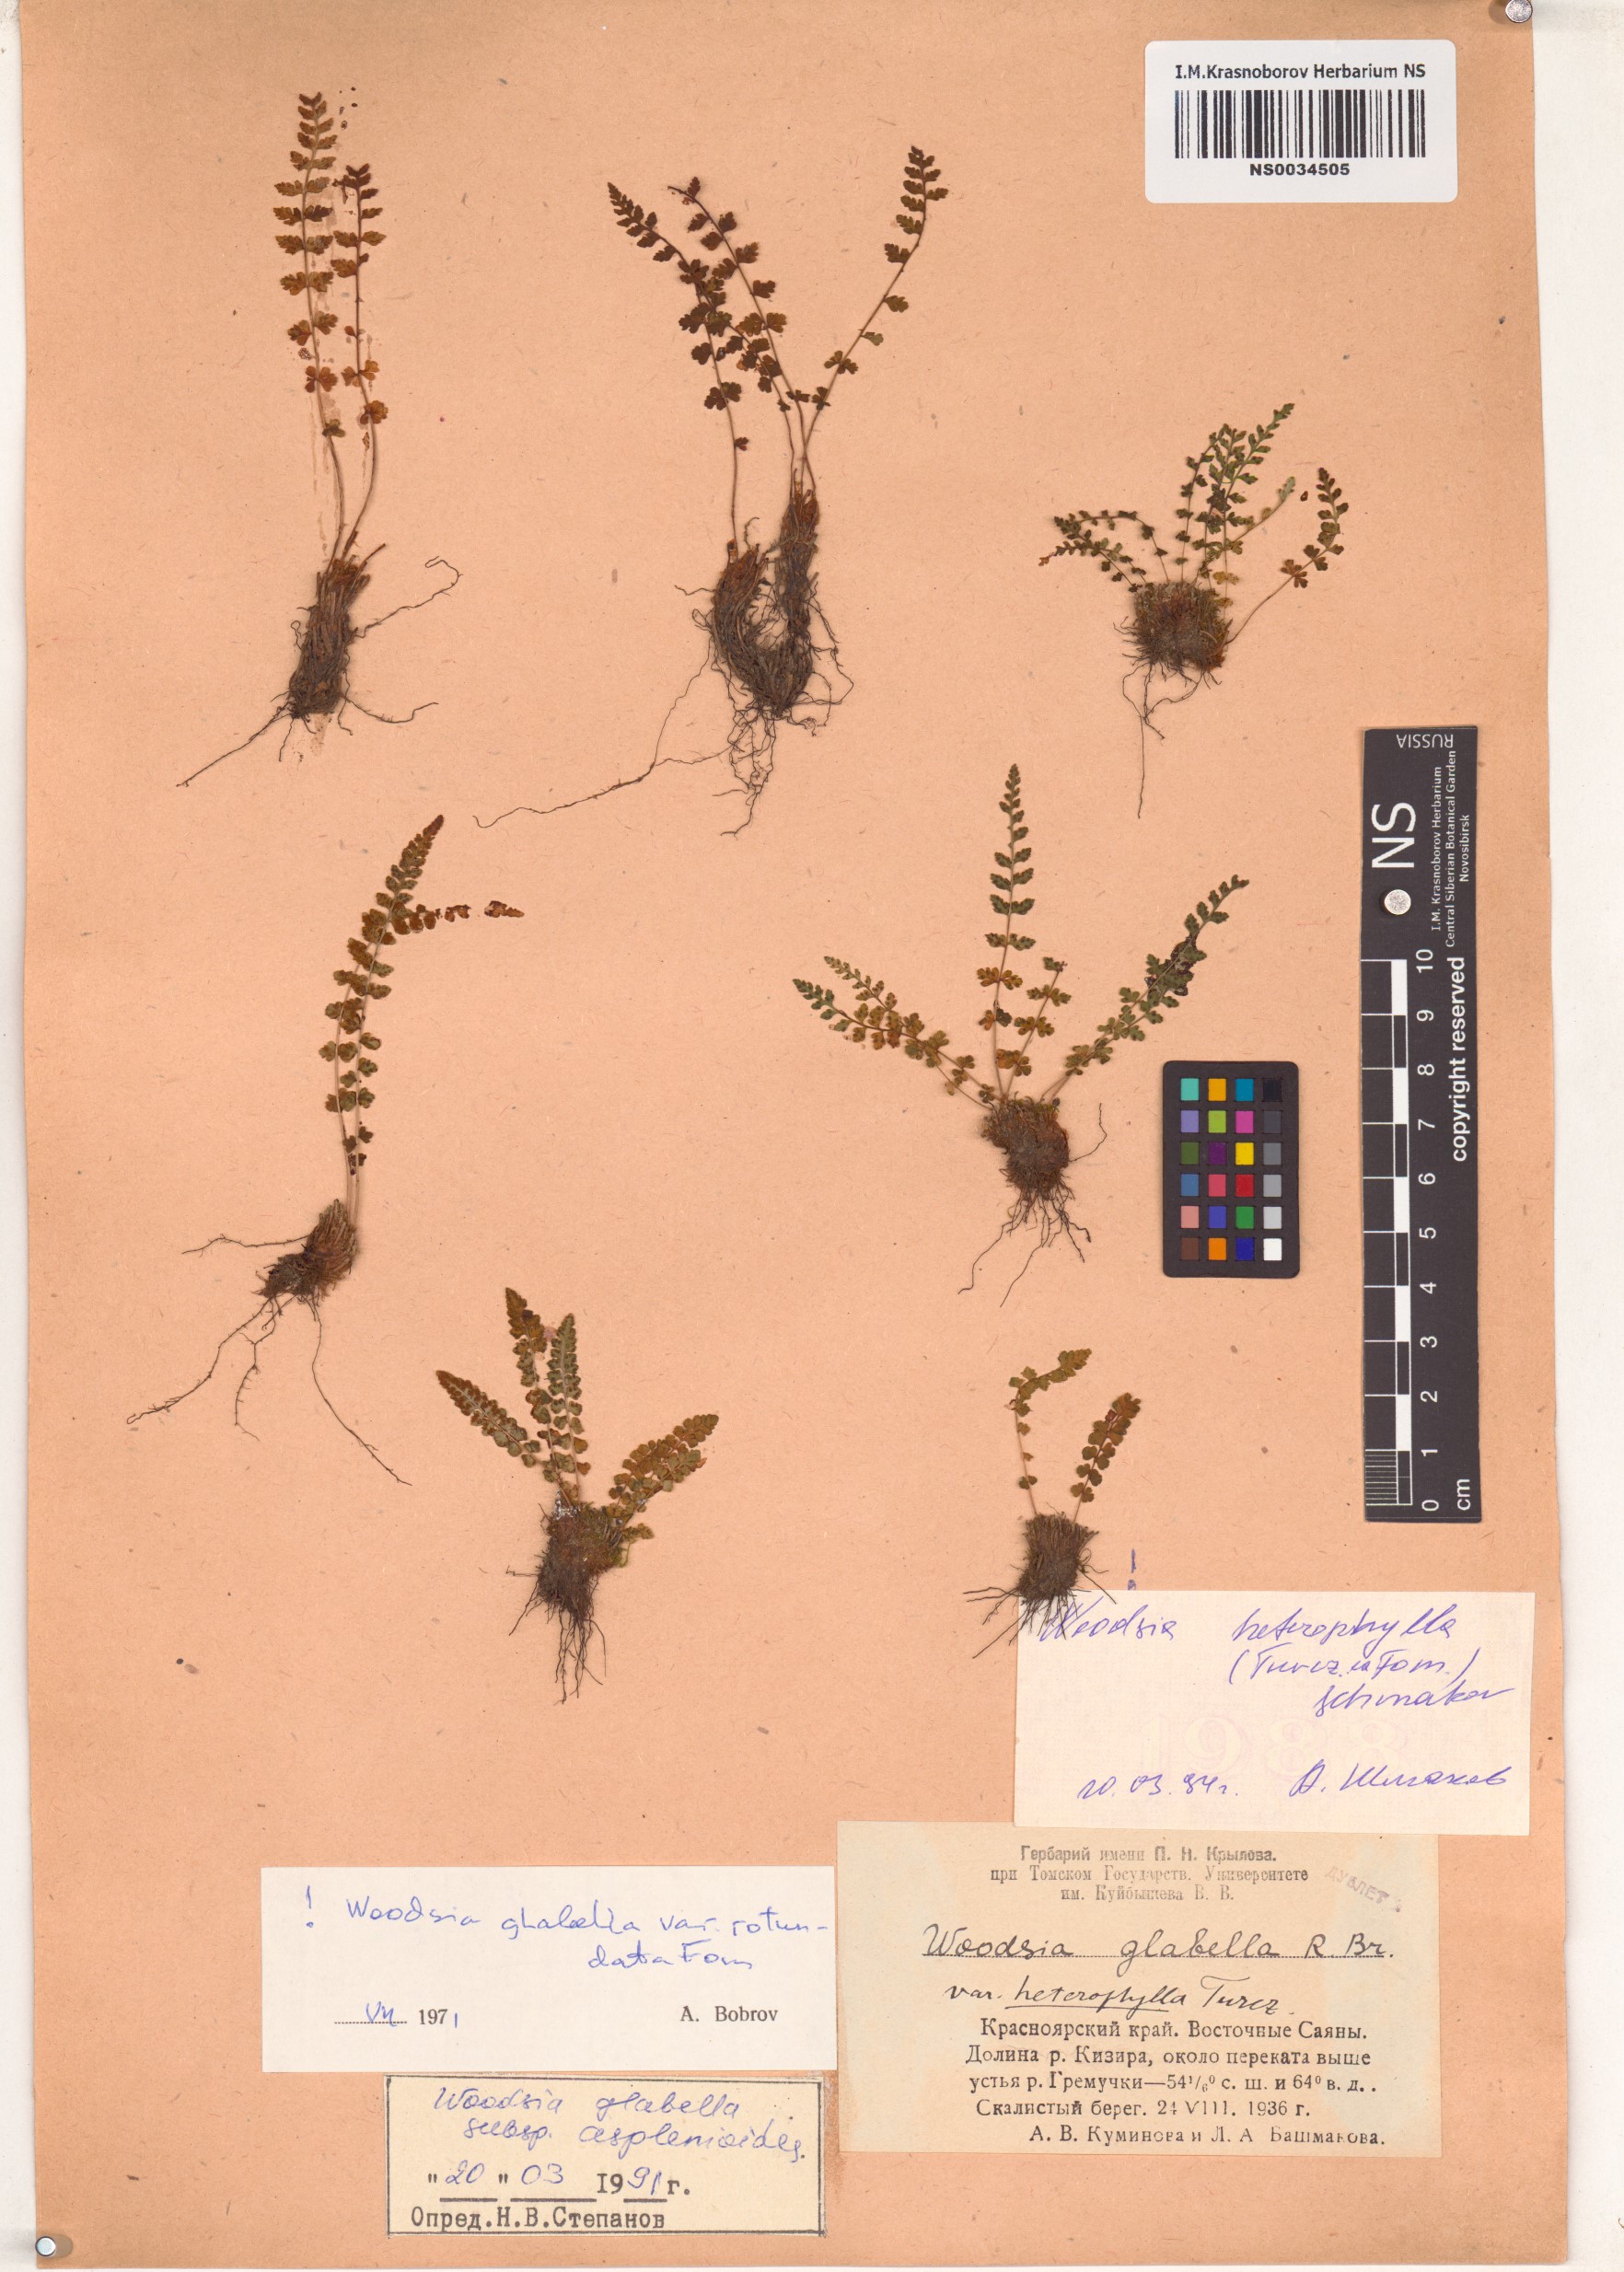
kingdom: Plantae
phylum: Tracheophyta
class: Polypodiopsida
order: Polypodiales
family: Woodsiaceae
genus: Woodsia
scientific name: Woodsia pulchella
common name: Graceful woodsia
